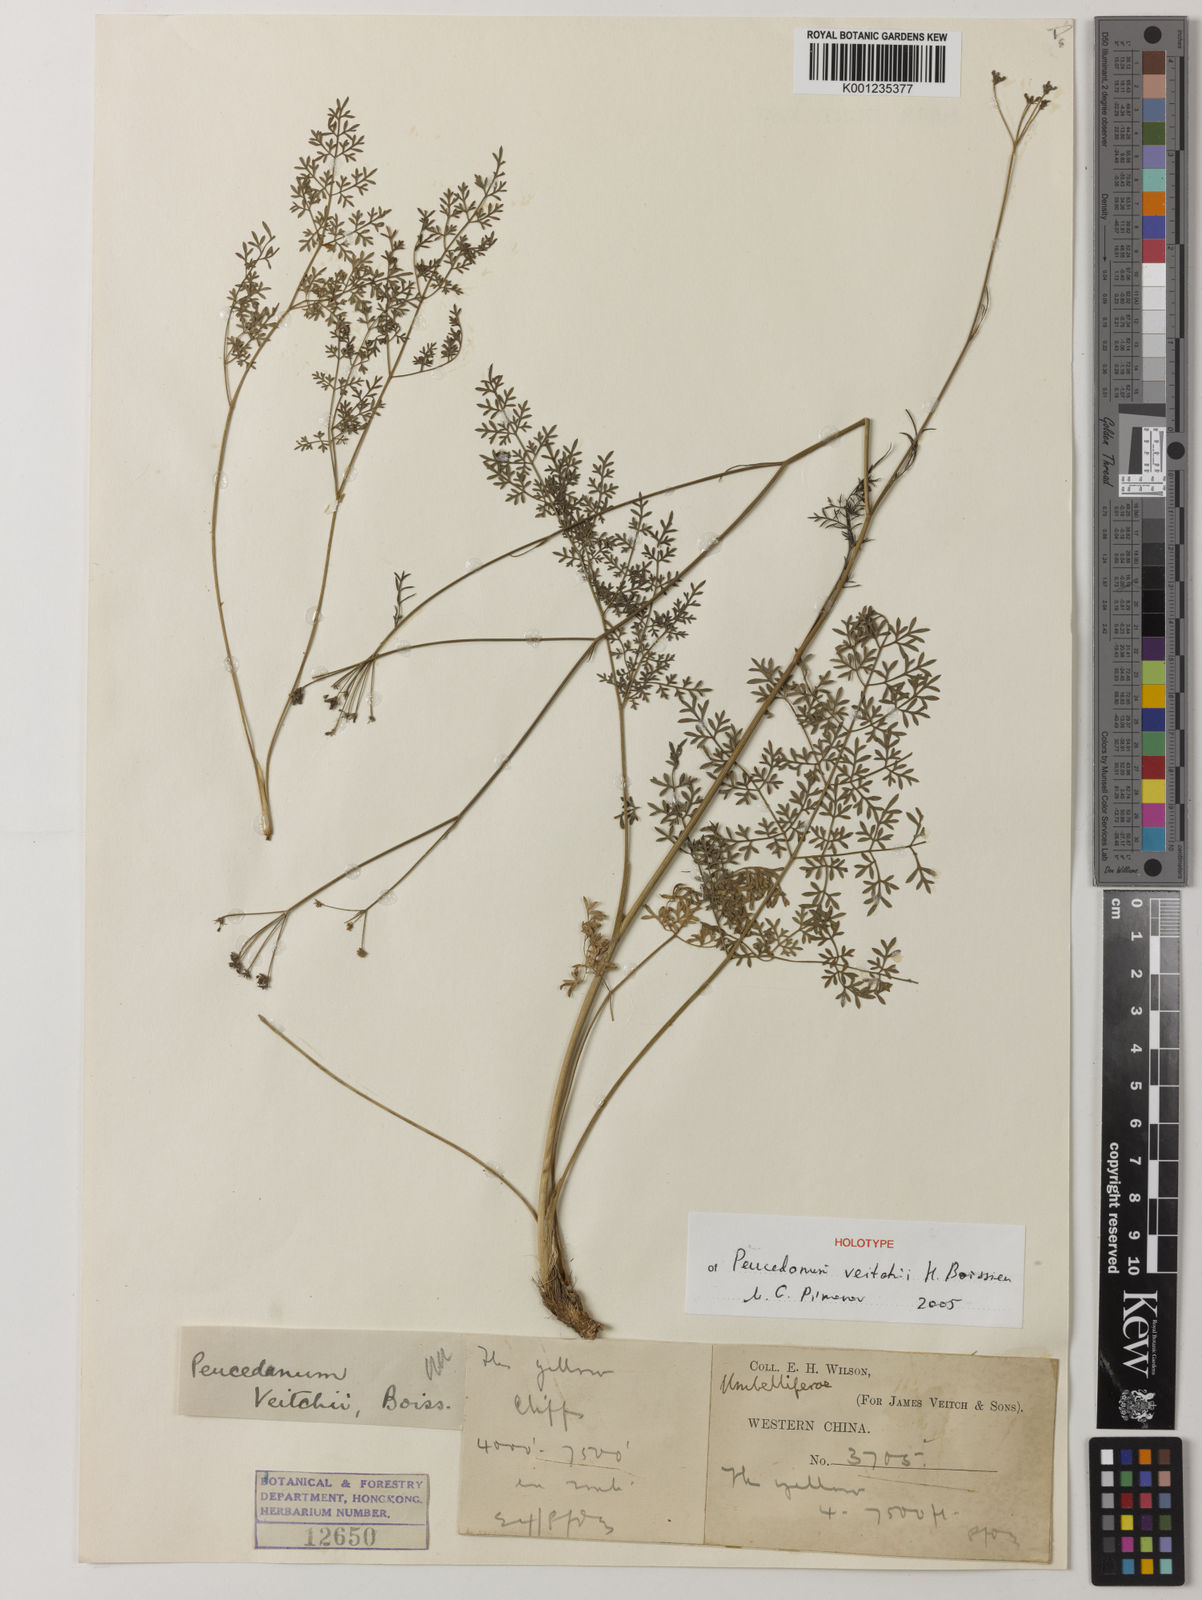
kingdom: Plantae
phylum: Tracheophyta
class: Magnoliopsida
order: Apiales
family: Apiaceae
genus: Seseli
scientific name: Seseli veitchii
